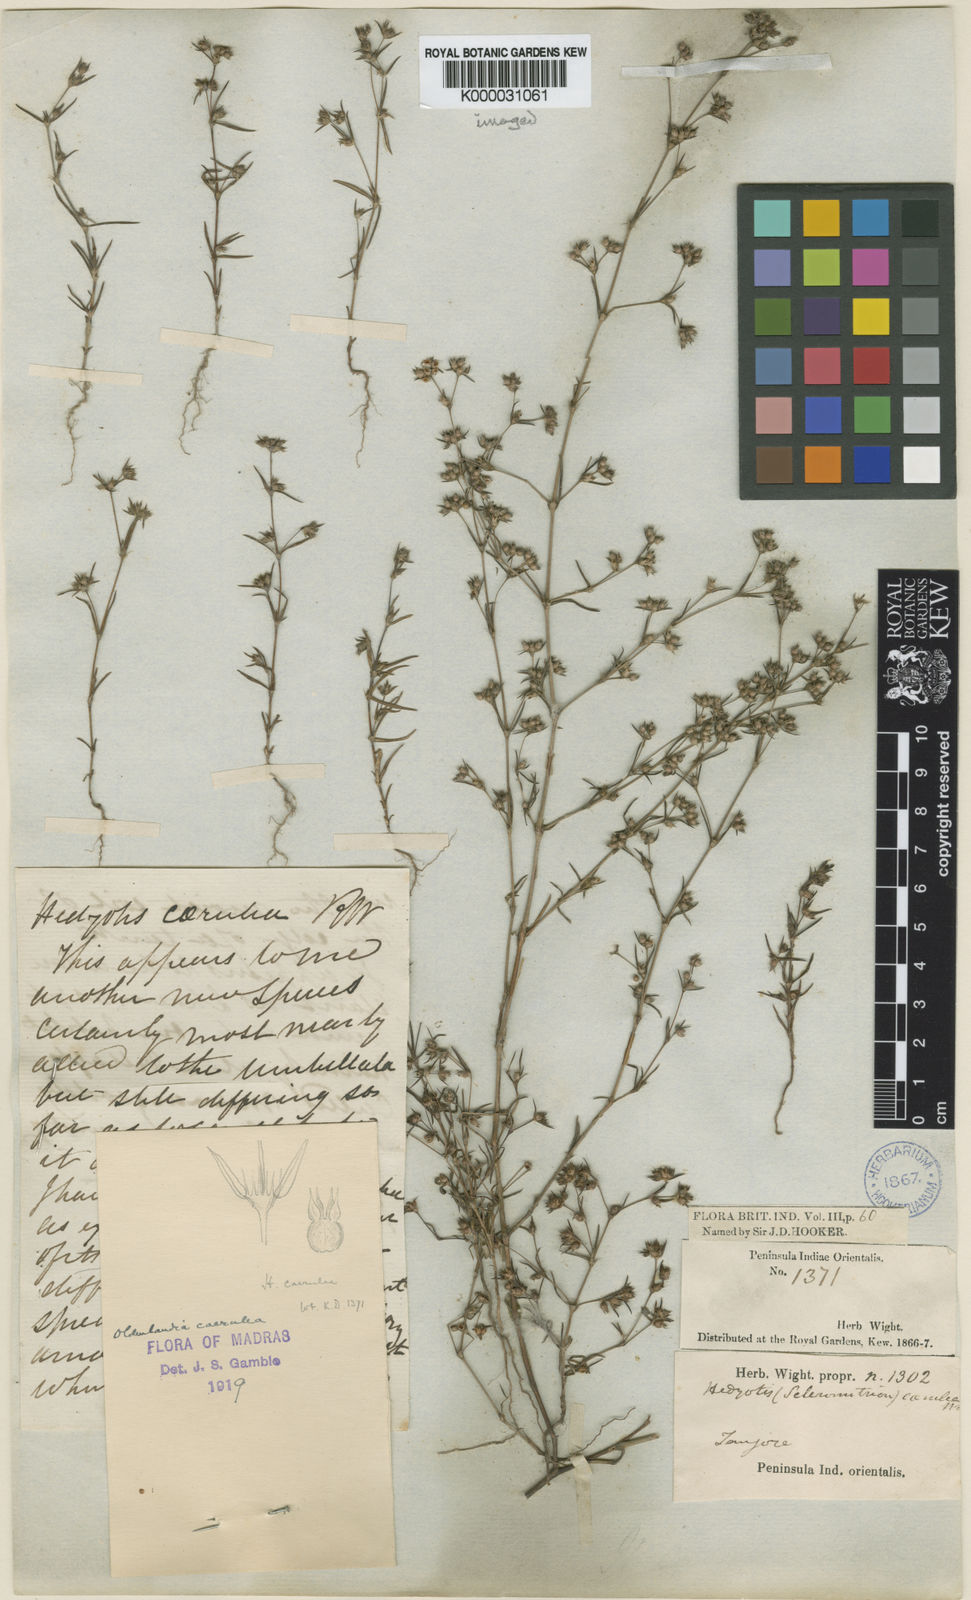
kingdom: Plantae
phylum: Tracheophyta
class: Magnoliopsida
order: Gentianales
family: Rubiaceae
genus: Hedyotis
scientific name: Hedyotis cyanantha
